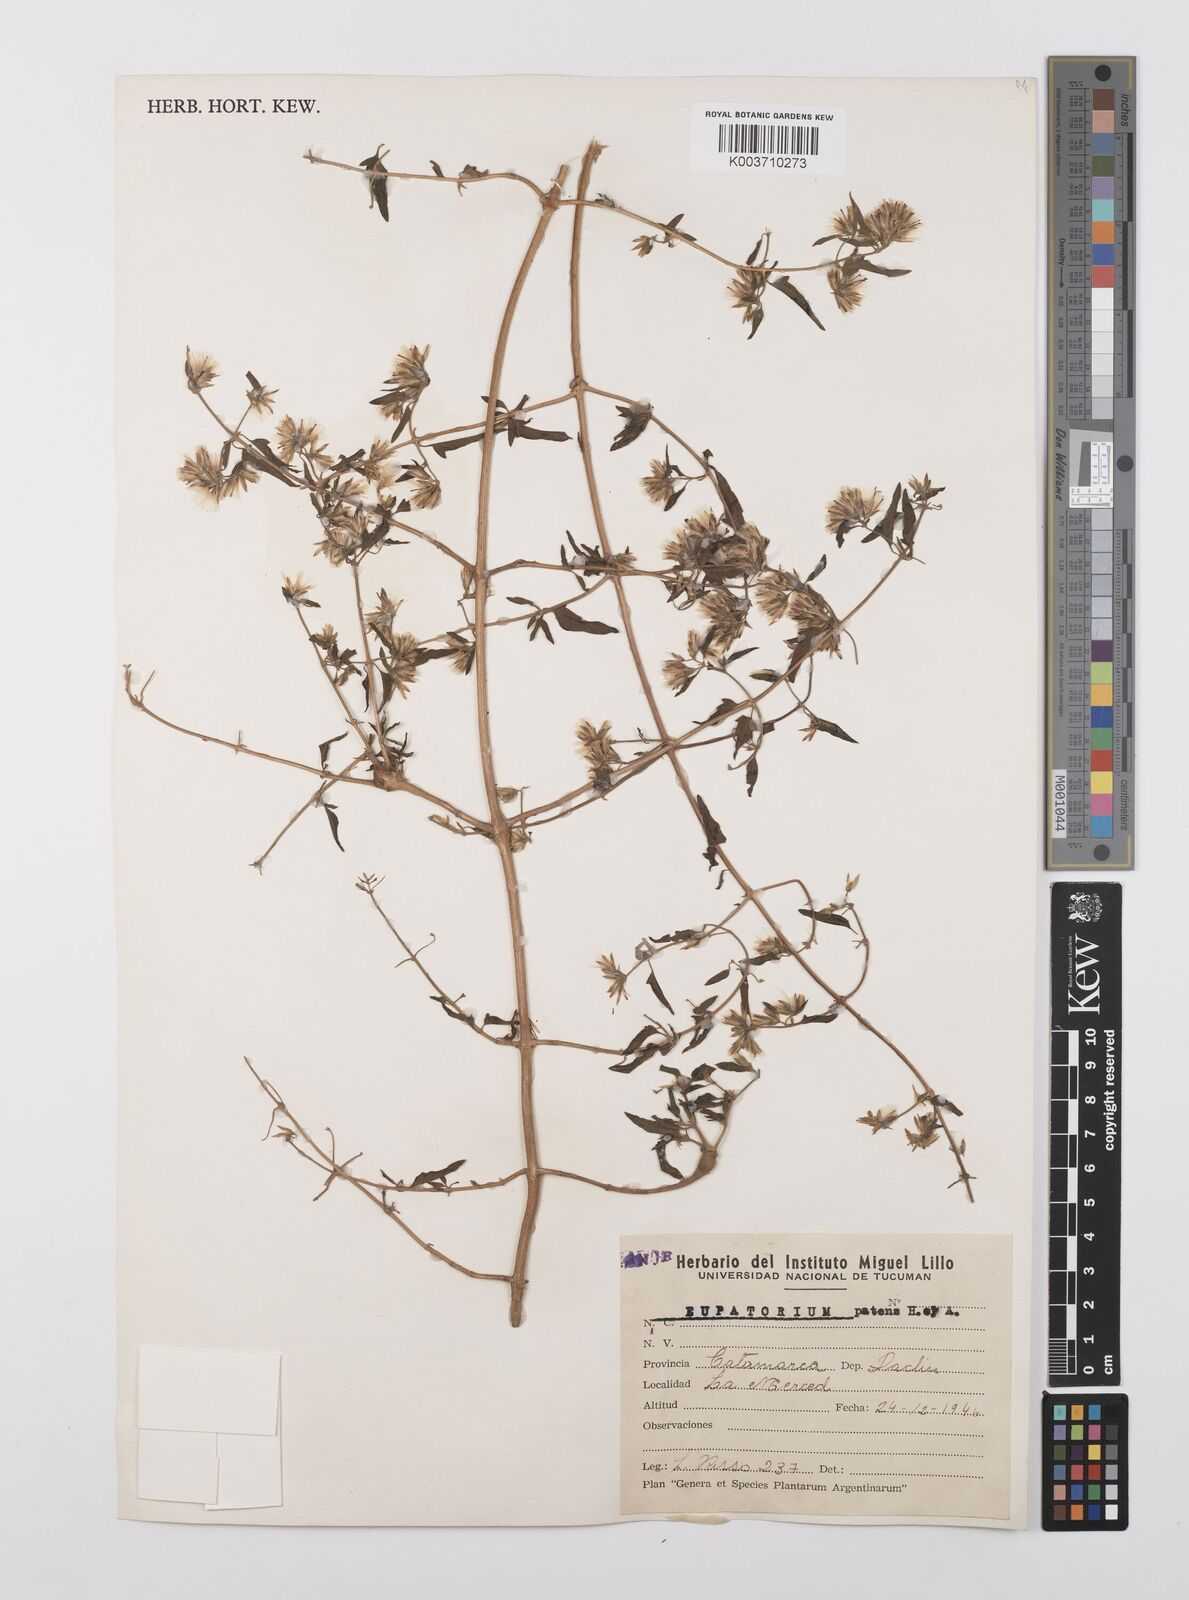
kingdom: Plantae
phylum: Tracheophyta
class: Magnoliopsida
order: Asterales
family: Asteraceae
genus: Austrobrickellia
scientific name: Austrobrickellia patens
